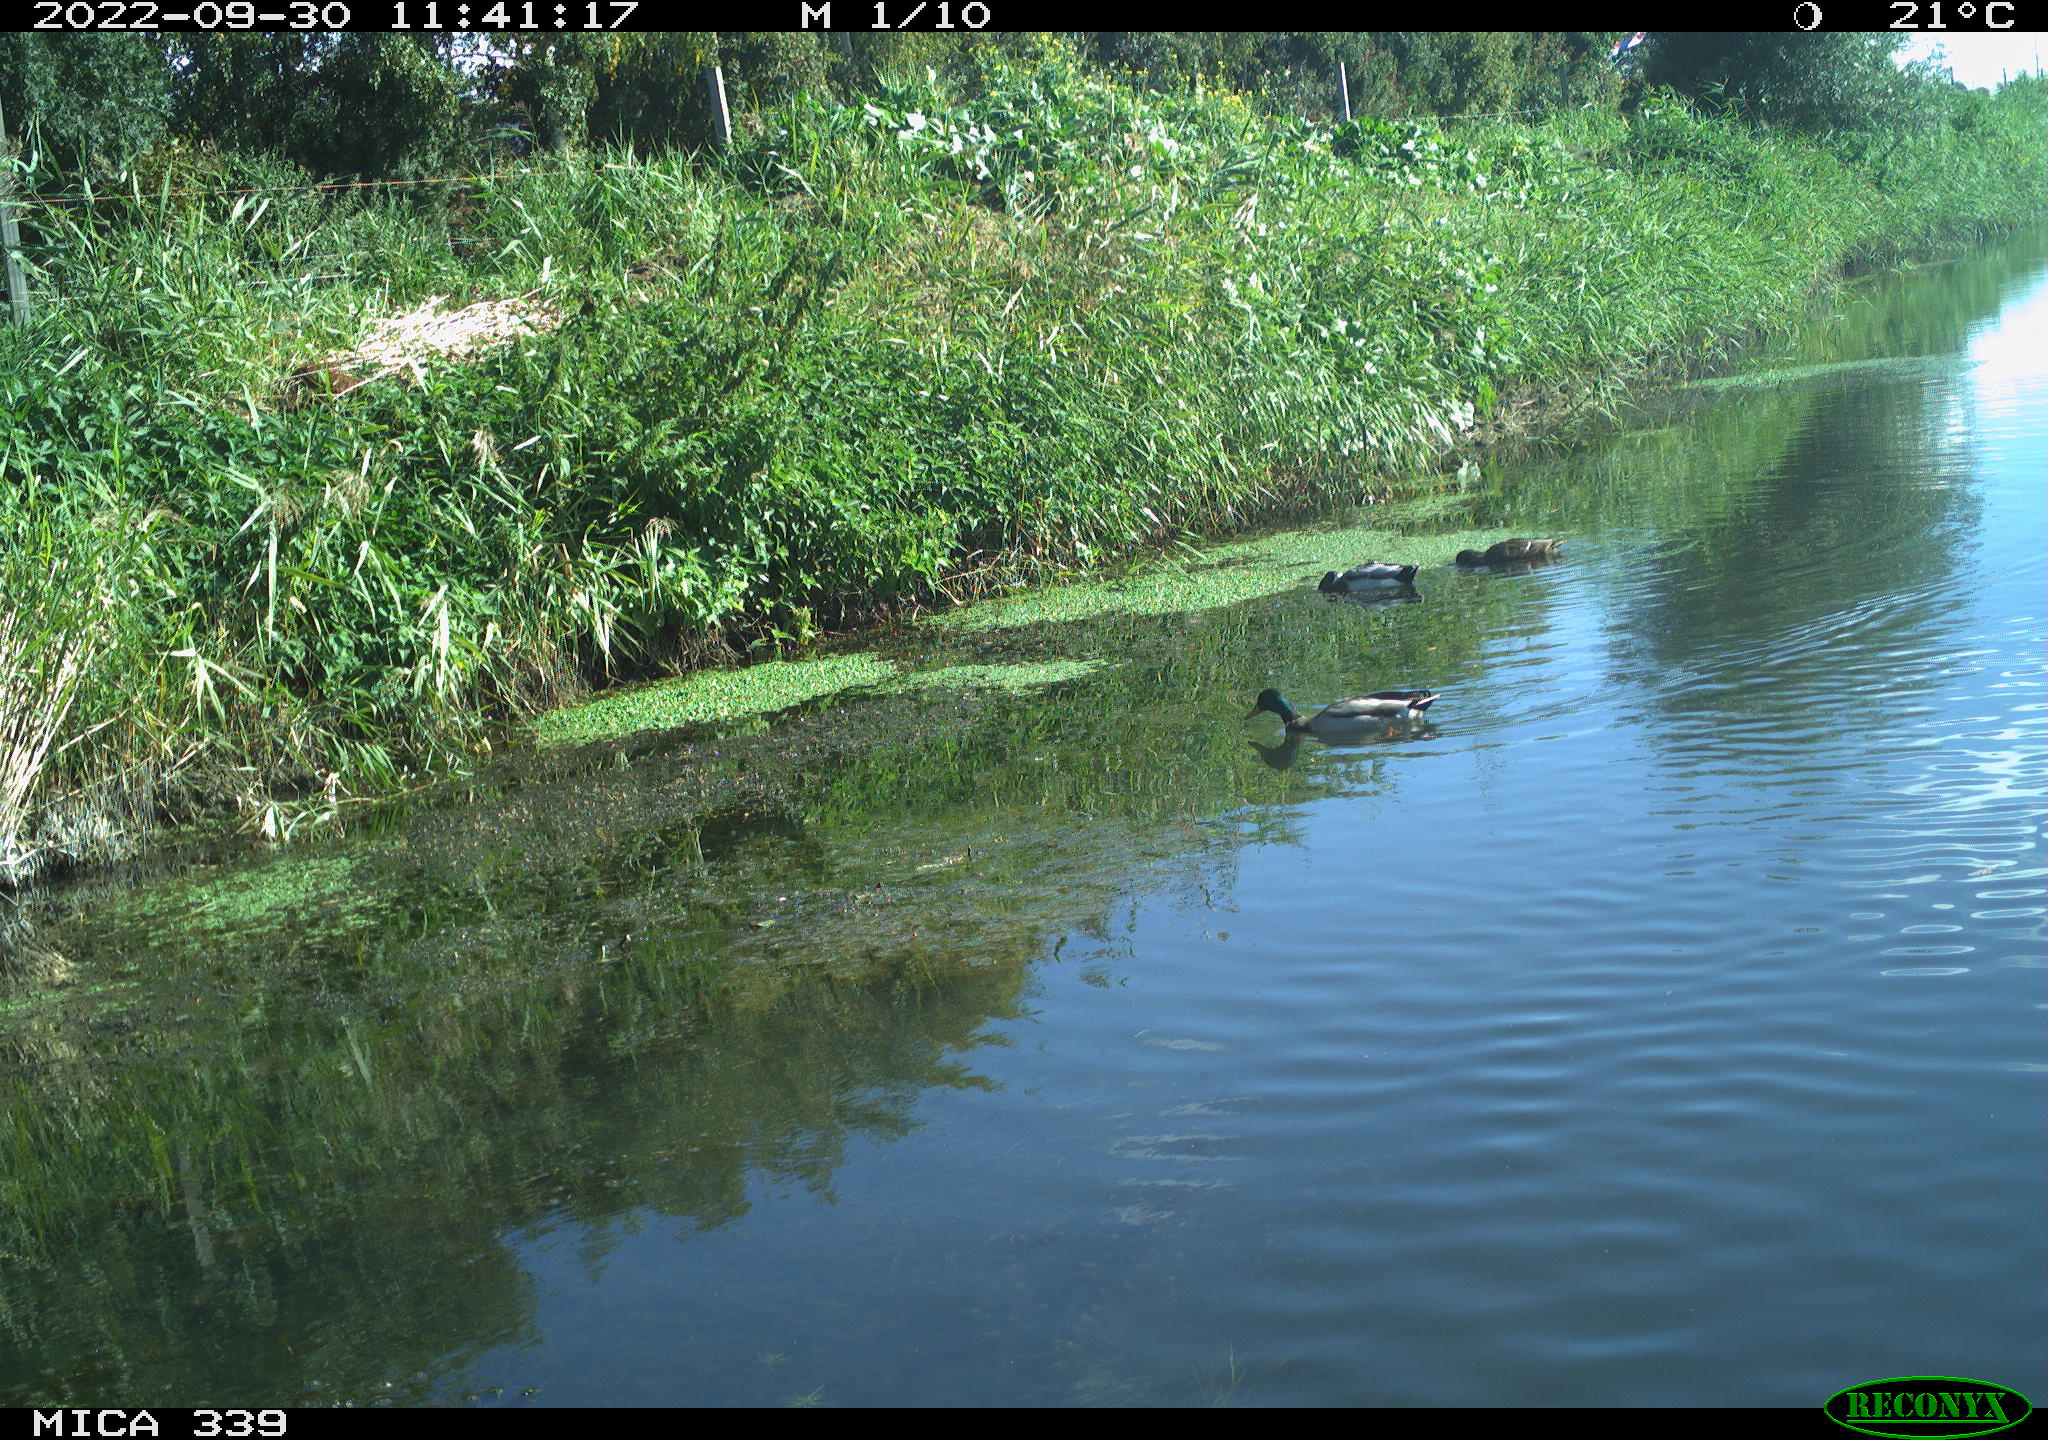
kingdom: Animalia
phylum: Chordata
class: Aves
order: Anseriformes
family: Anatidae
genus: Anas
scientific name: Anas platyrhynchos
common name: Mallard
